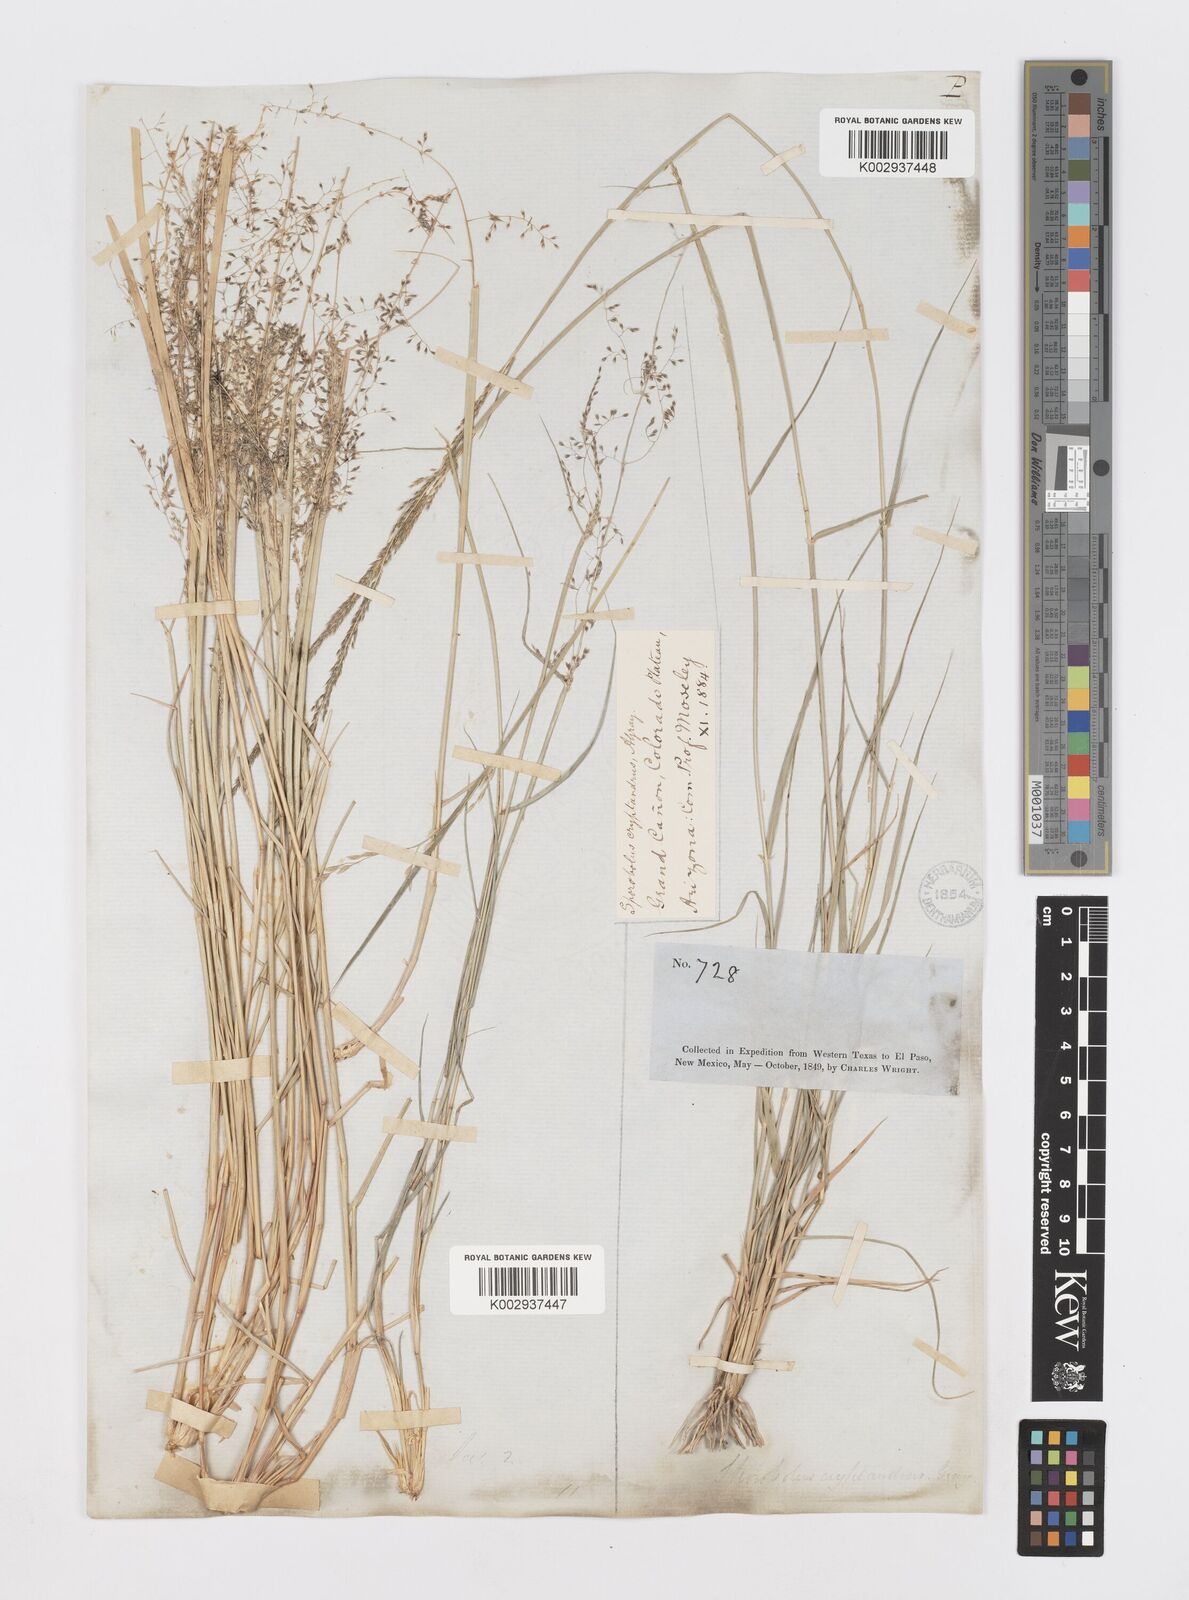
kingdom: Plantae
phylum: Tracheophyta
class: Liliopsida
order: Poales
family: Poaceae
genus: Sporobolus
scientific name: Sporobolus flexuosus
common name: Mesa dropseed
